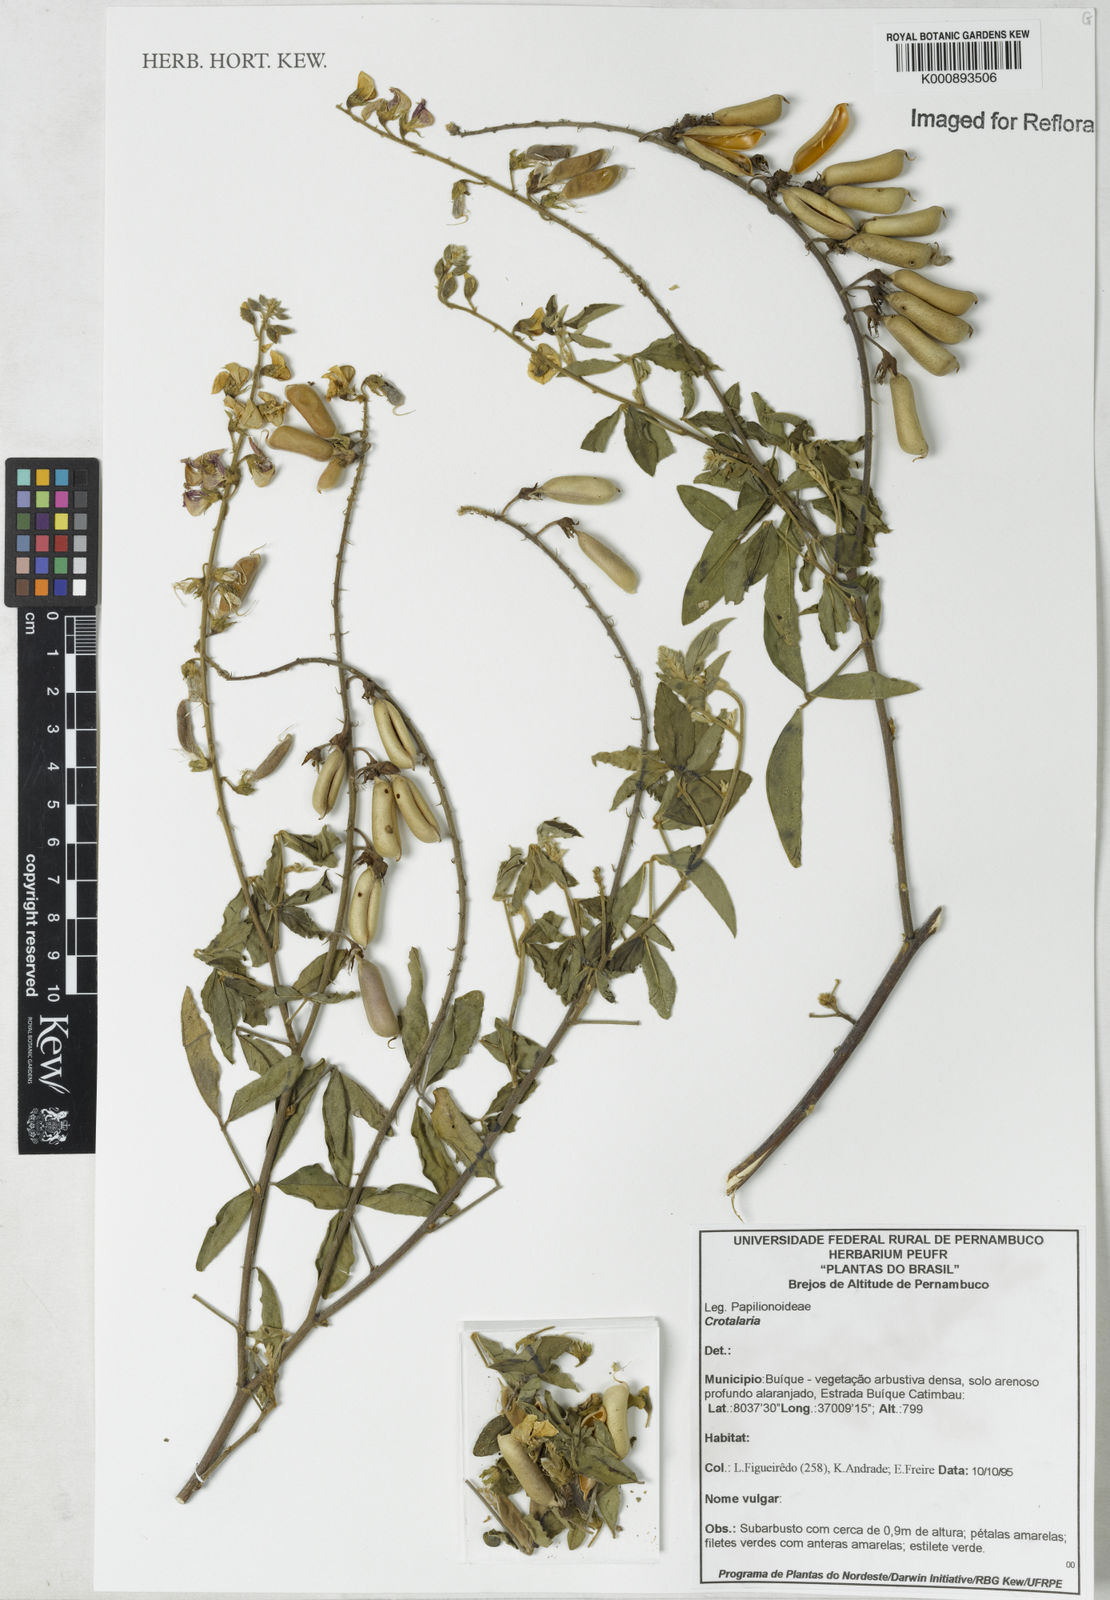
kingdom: Plantae
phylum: Tracheophyta
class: Magnoliopsida
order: Fabales
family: Fabaceae
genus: Crotalaria
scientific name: Crotalaria vitellina
